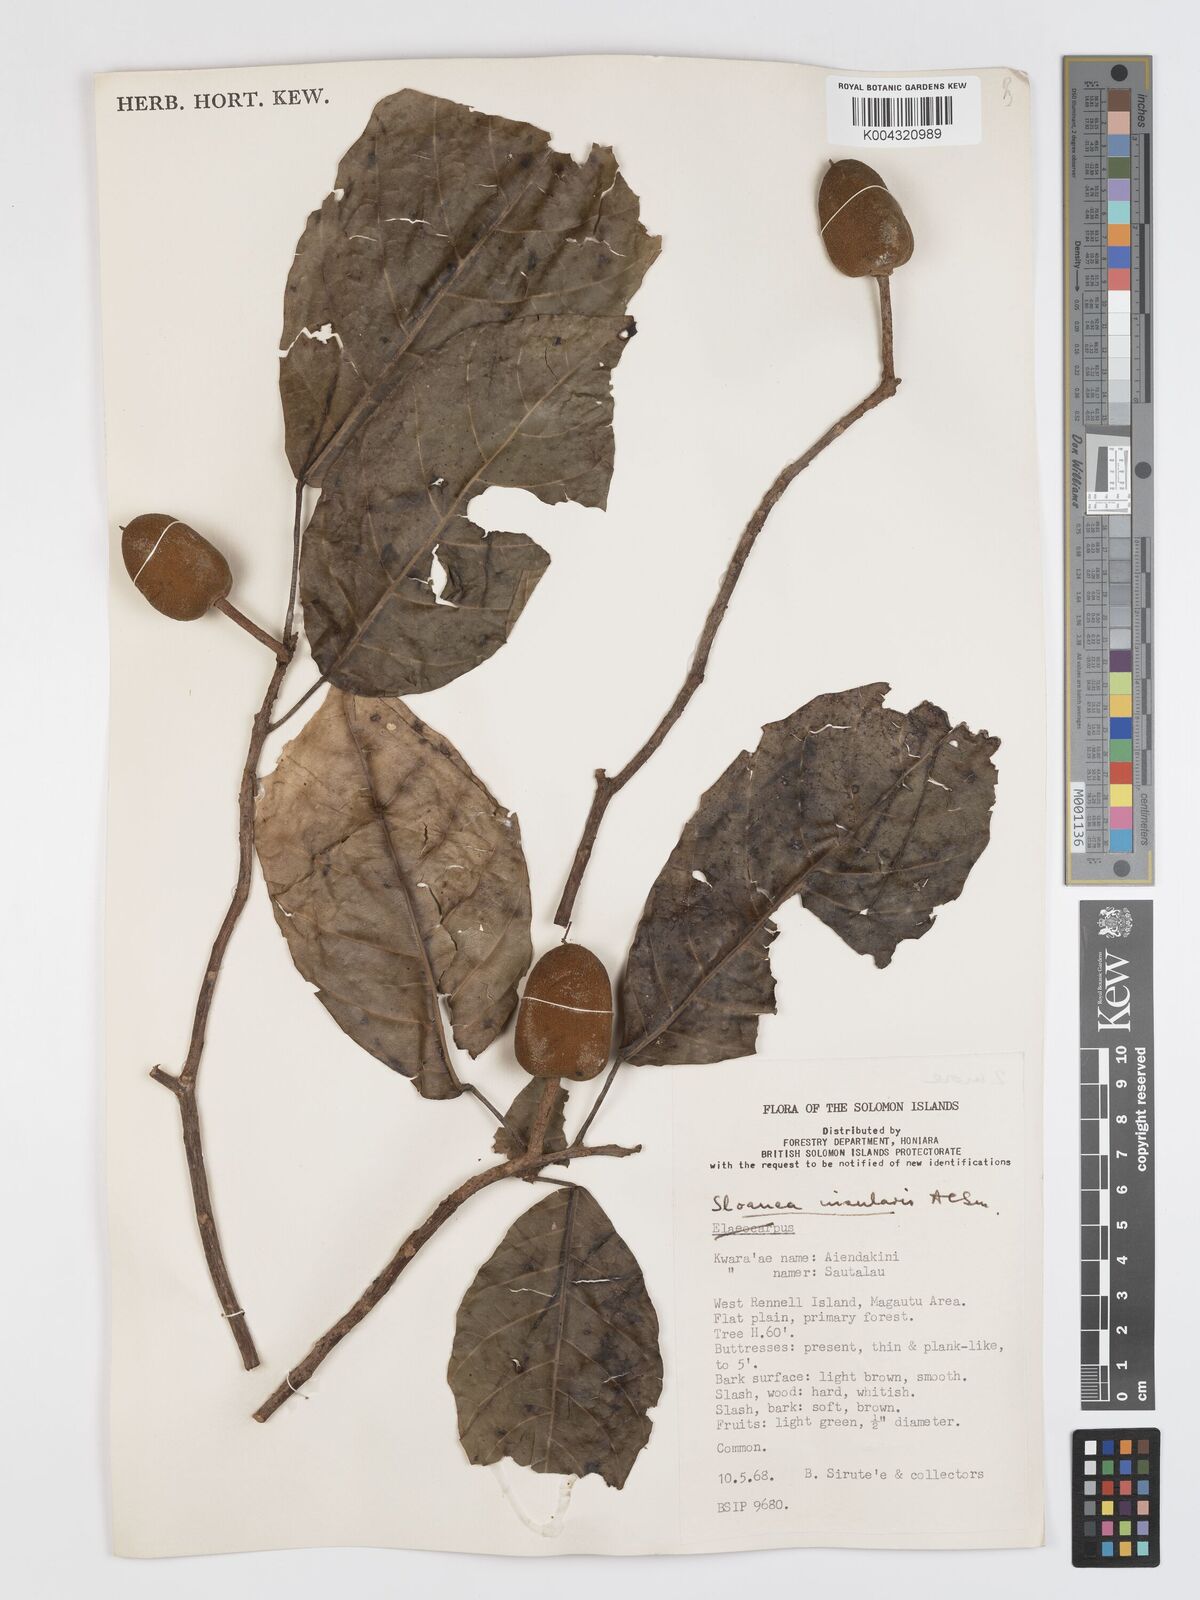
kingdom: Plantae
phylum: Tracheophyta
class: Magnoliopsida
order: Oxalidales
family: Elaeocarpaceae
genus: Sloanea
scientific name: Sloanea insularis
